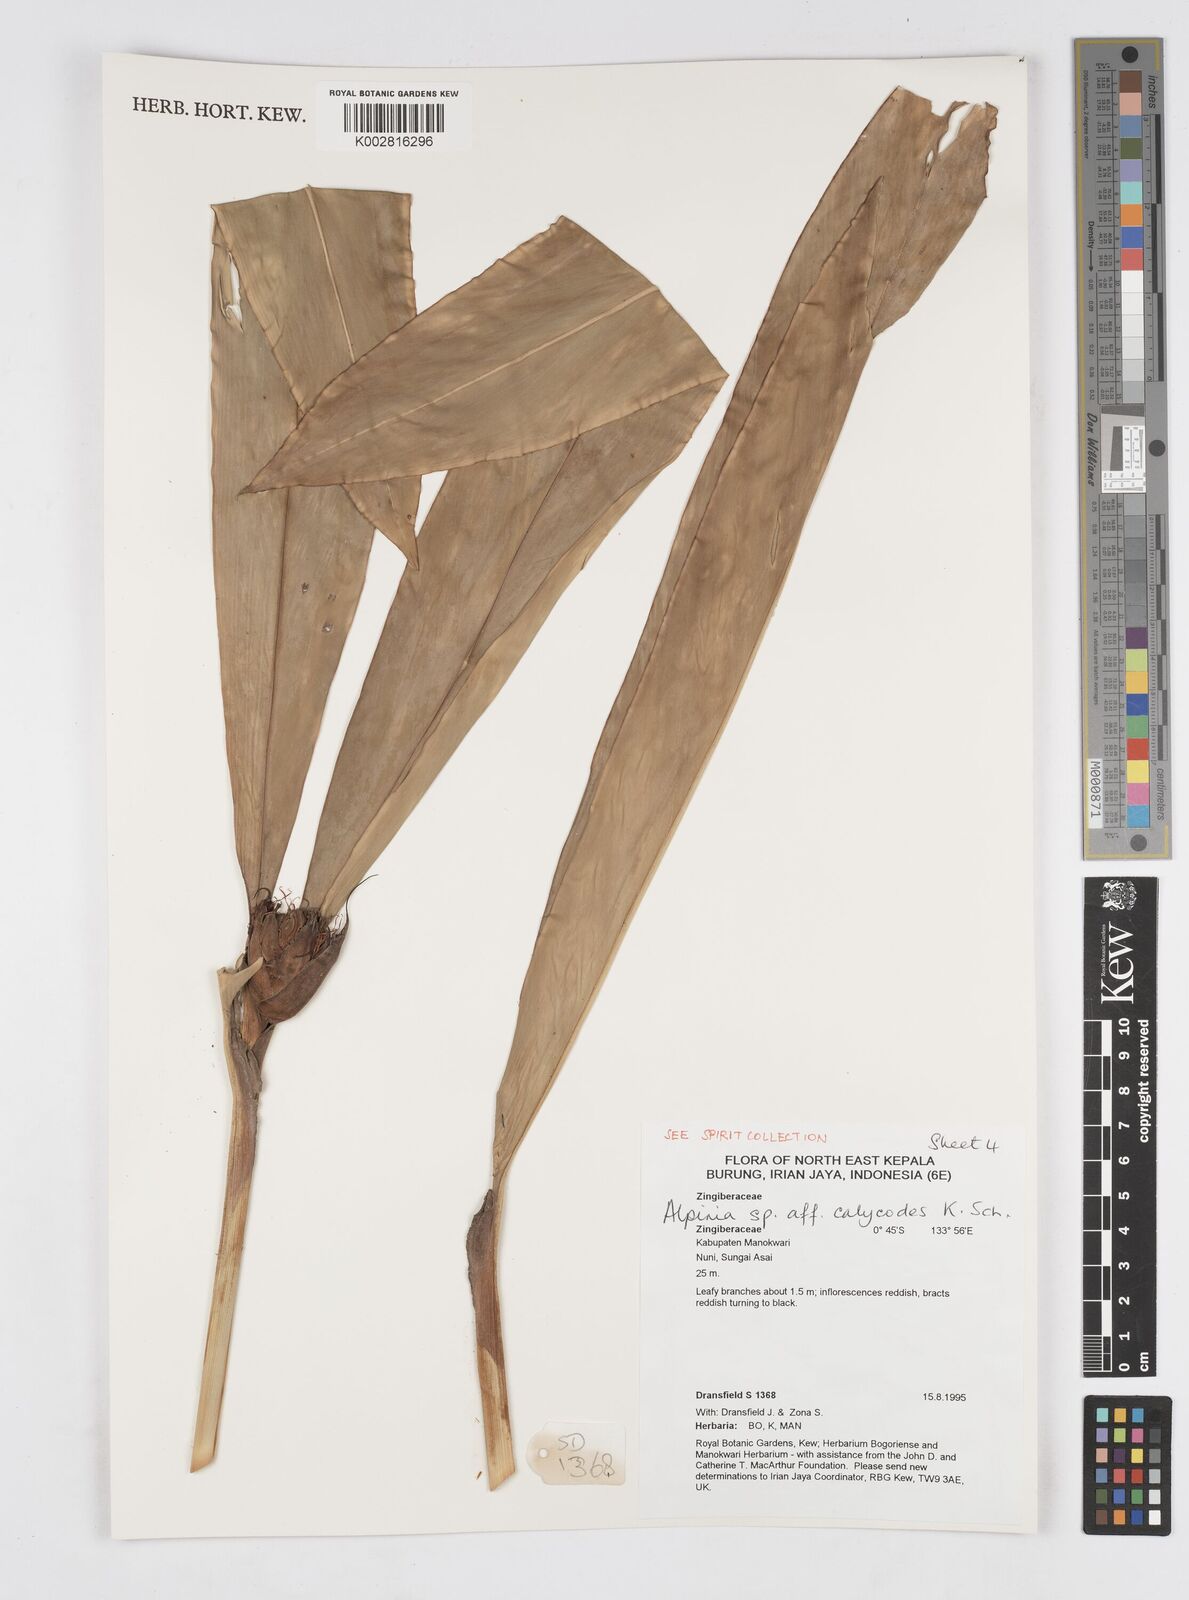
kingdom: Plantae
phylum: Tracheophyta
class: Liliopsida
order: Zingiberales
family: Zingiberaceae
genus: Alpinia
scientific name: Alpinia calycodes
